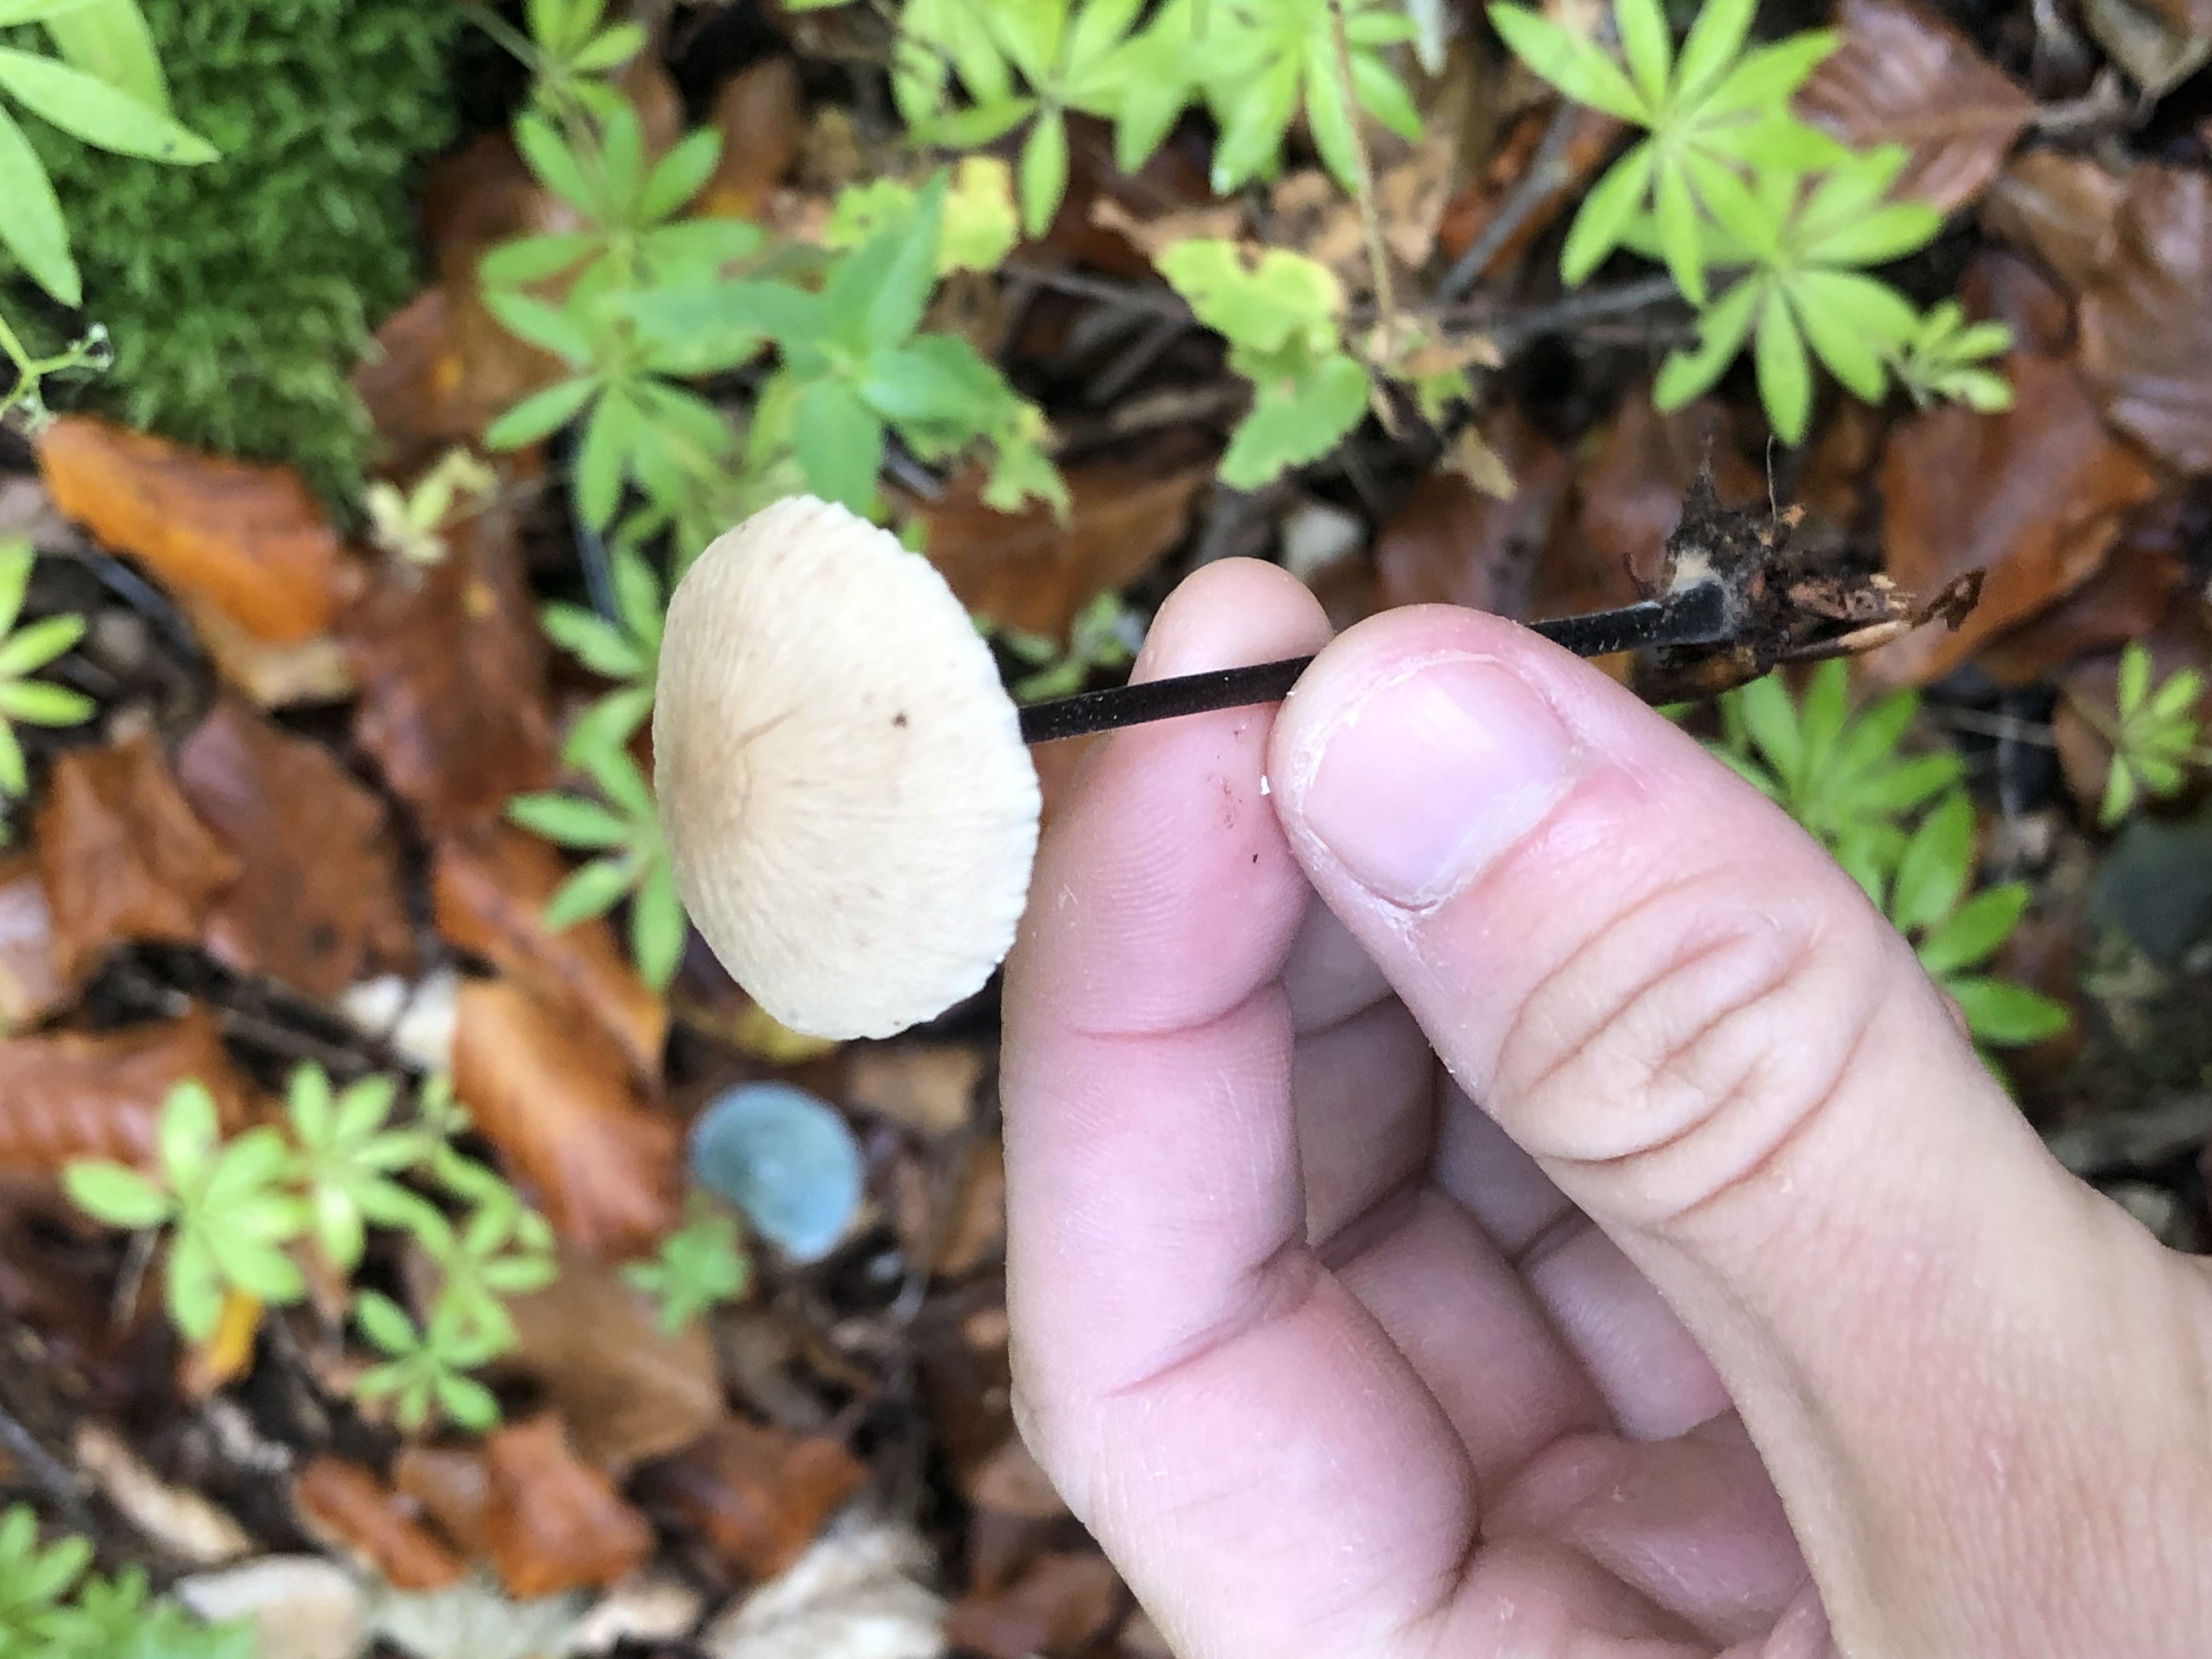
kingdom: Fungi
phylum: Basidiomycota
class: Agaricomycetes
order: Agaricales
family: Omphalotaceae
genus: Mycetinis
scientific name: Mycetinis alliaceus
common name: stor løghat
